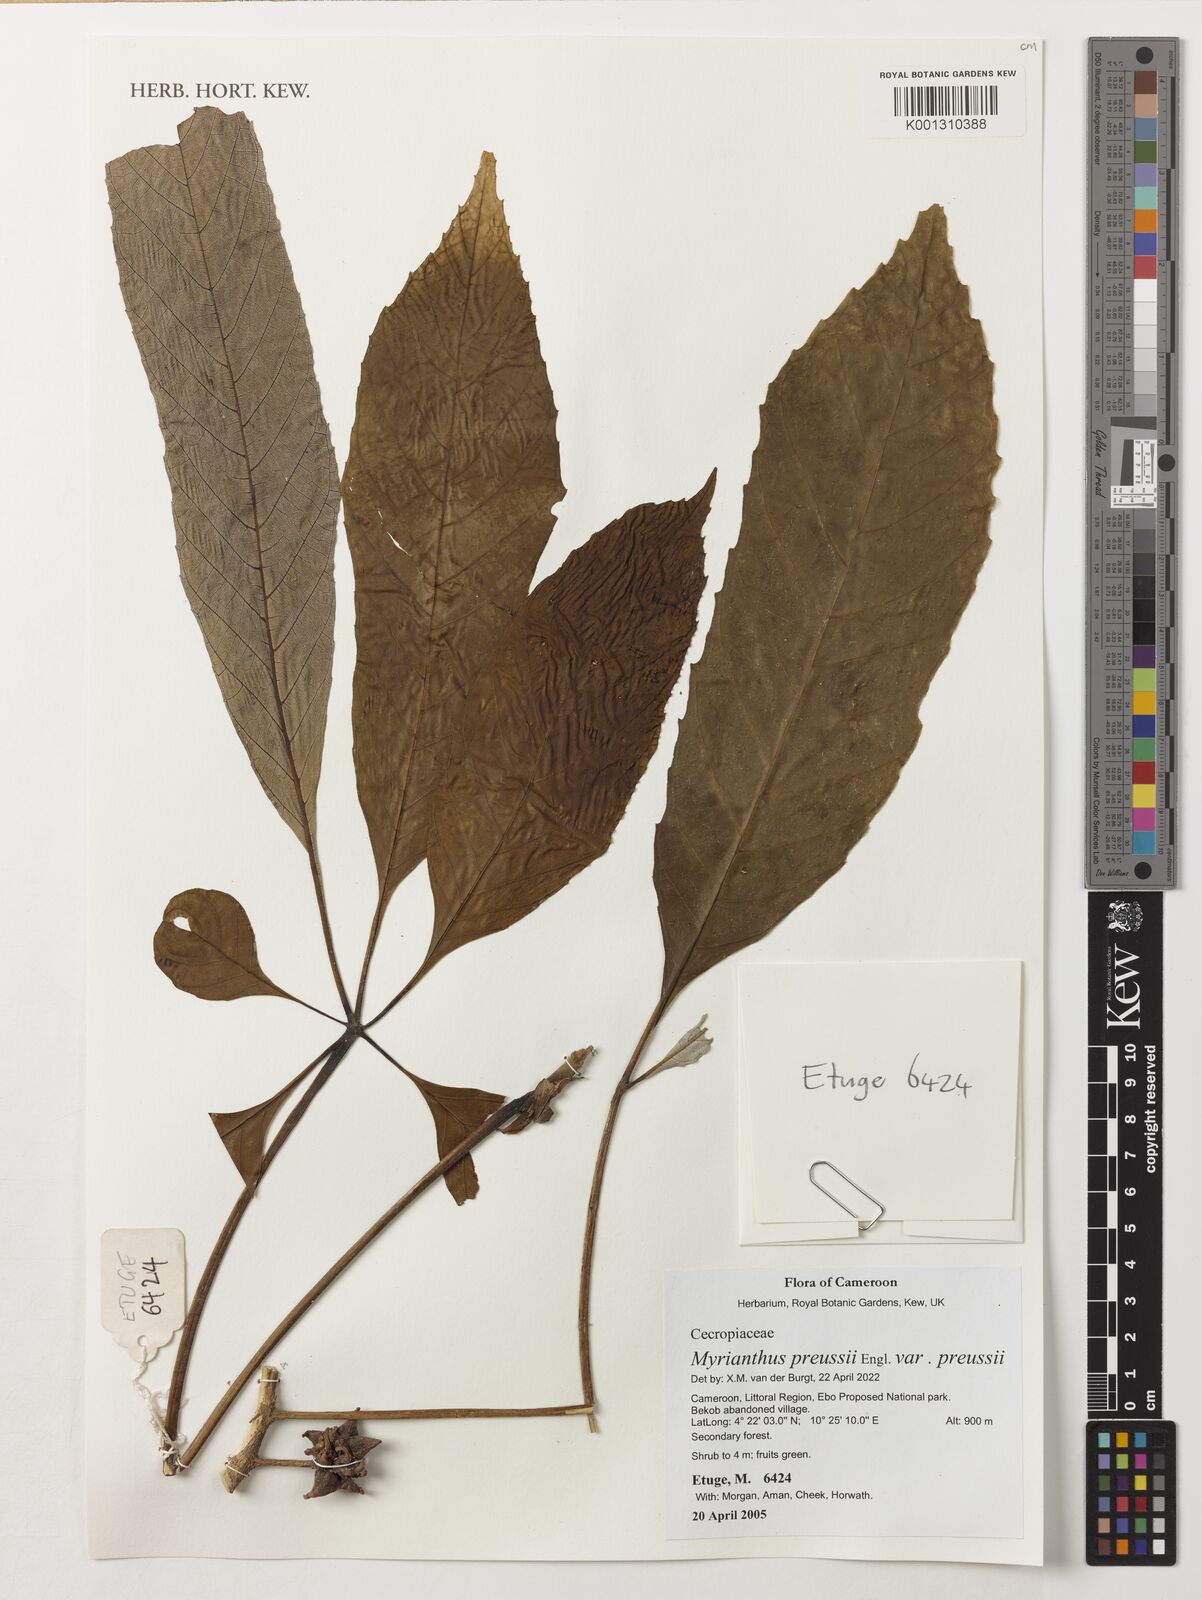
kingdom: Plantae
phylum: Tracheophyta
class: Magnoliopsida
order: Rosales
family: Urticaceae
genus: Myrianthus
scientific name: Myrianthus preussii
